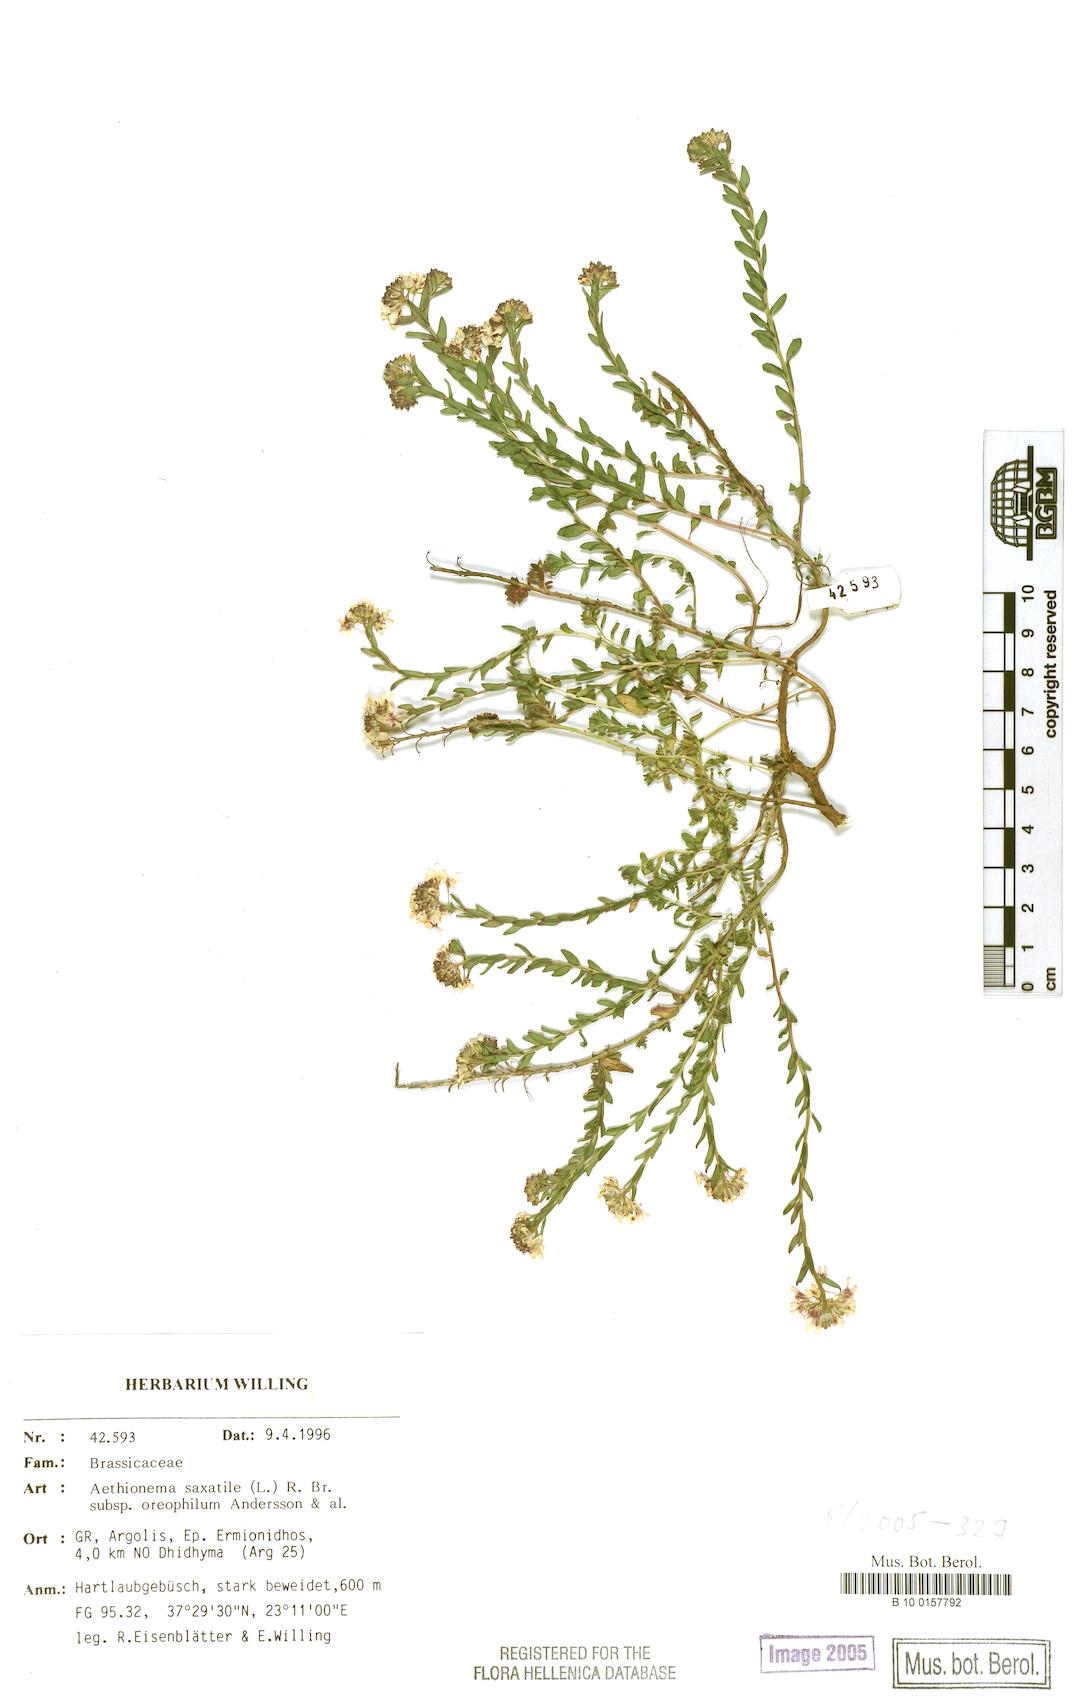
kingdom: Plantae
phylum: Tracheophyta
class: Magnoliopsida
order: Brassicales
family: Brassicaceae
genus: Aethionema
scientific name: Aethionema saxatile
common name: Burnt candytuft
